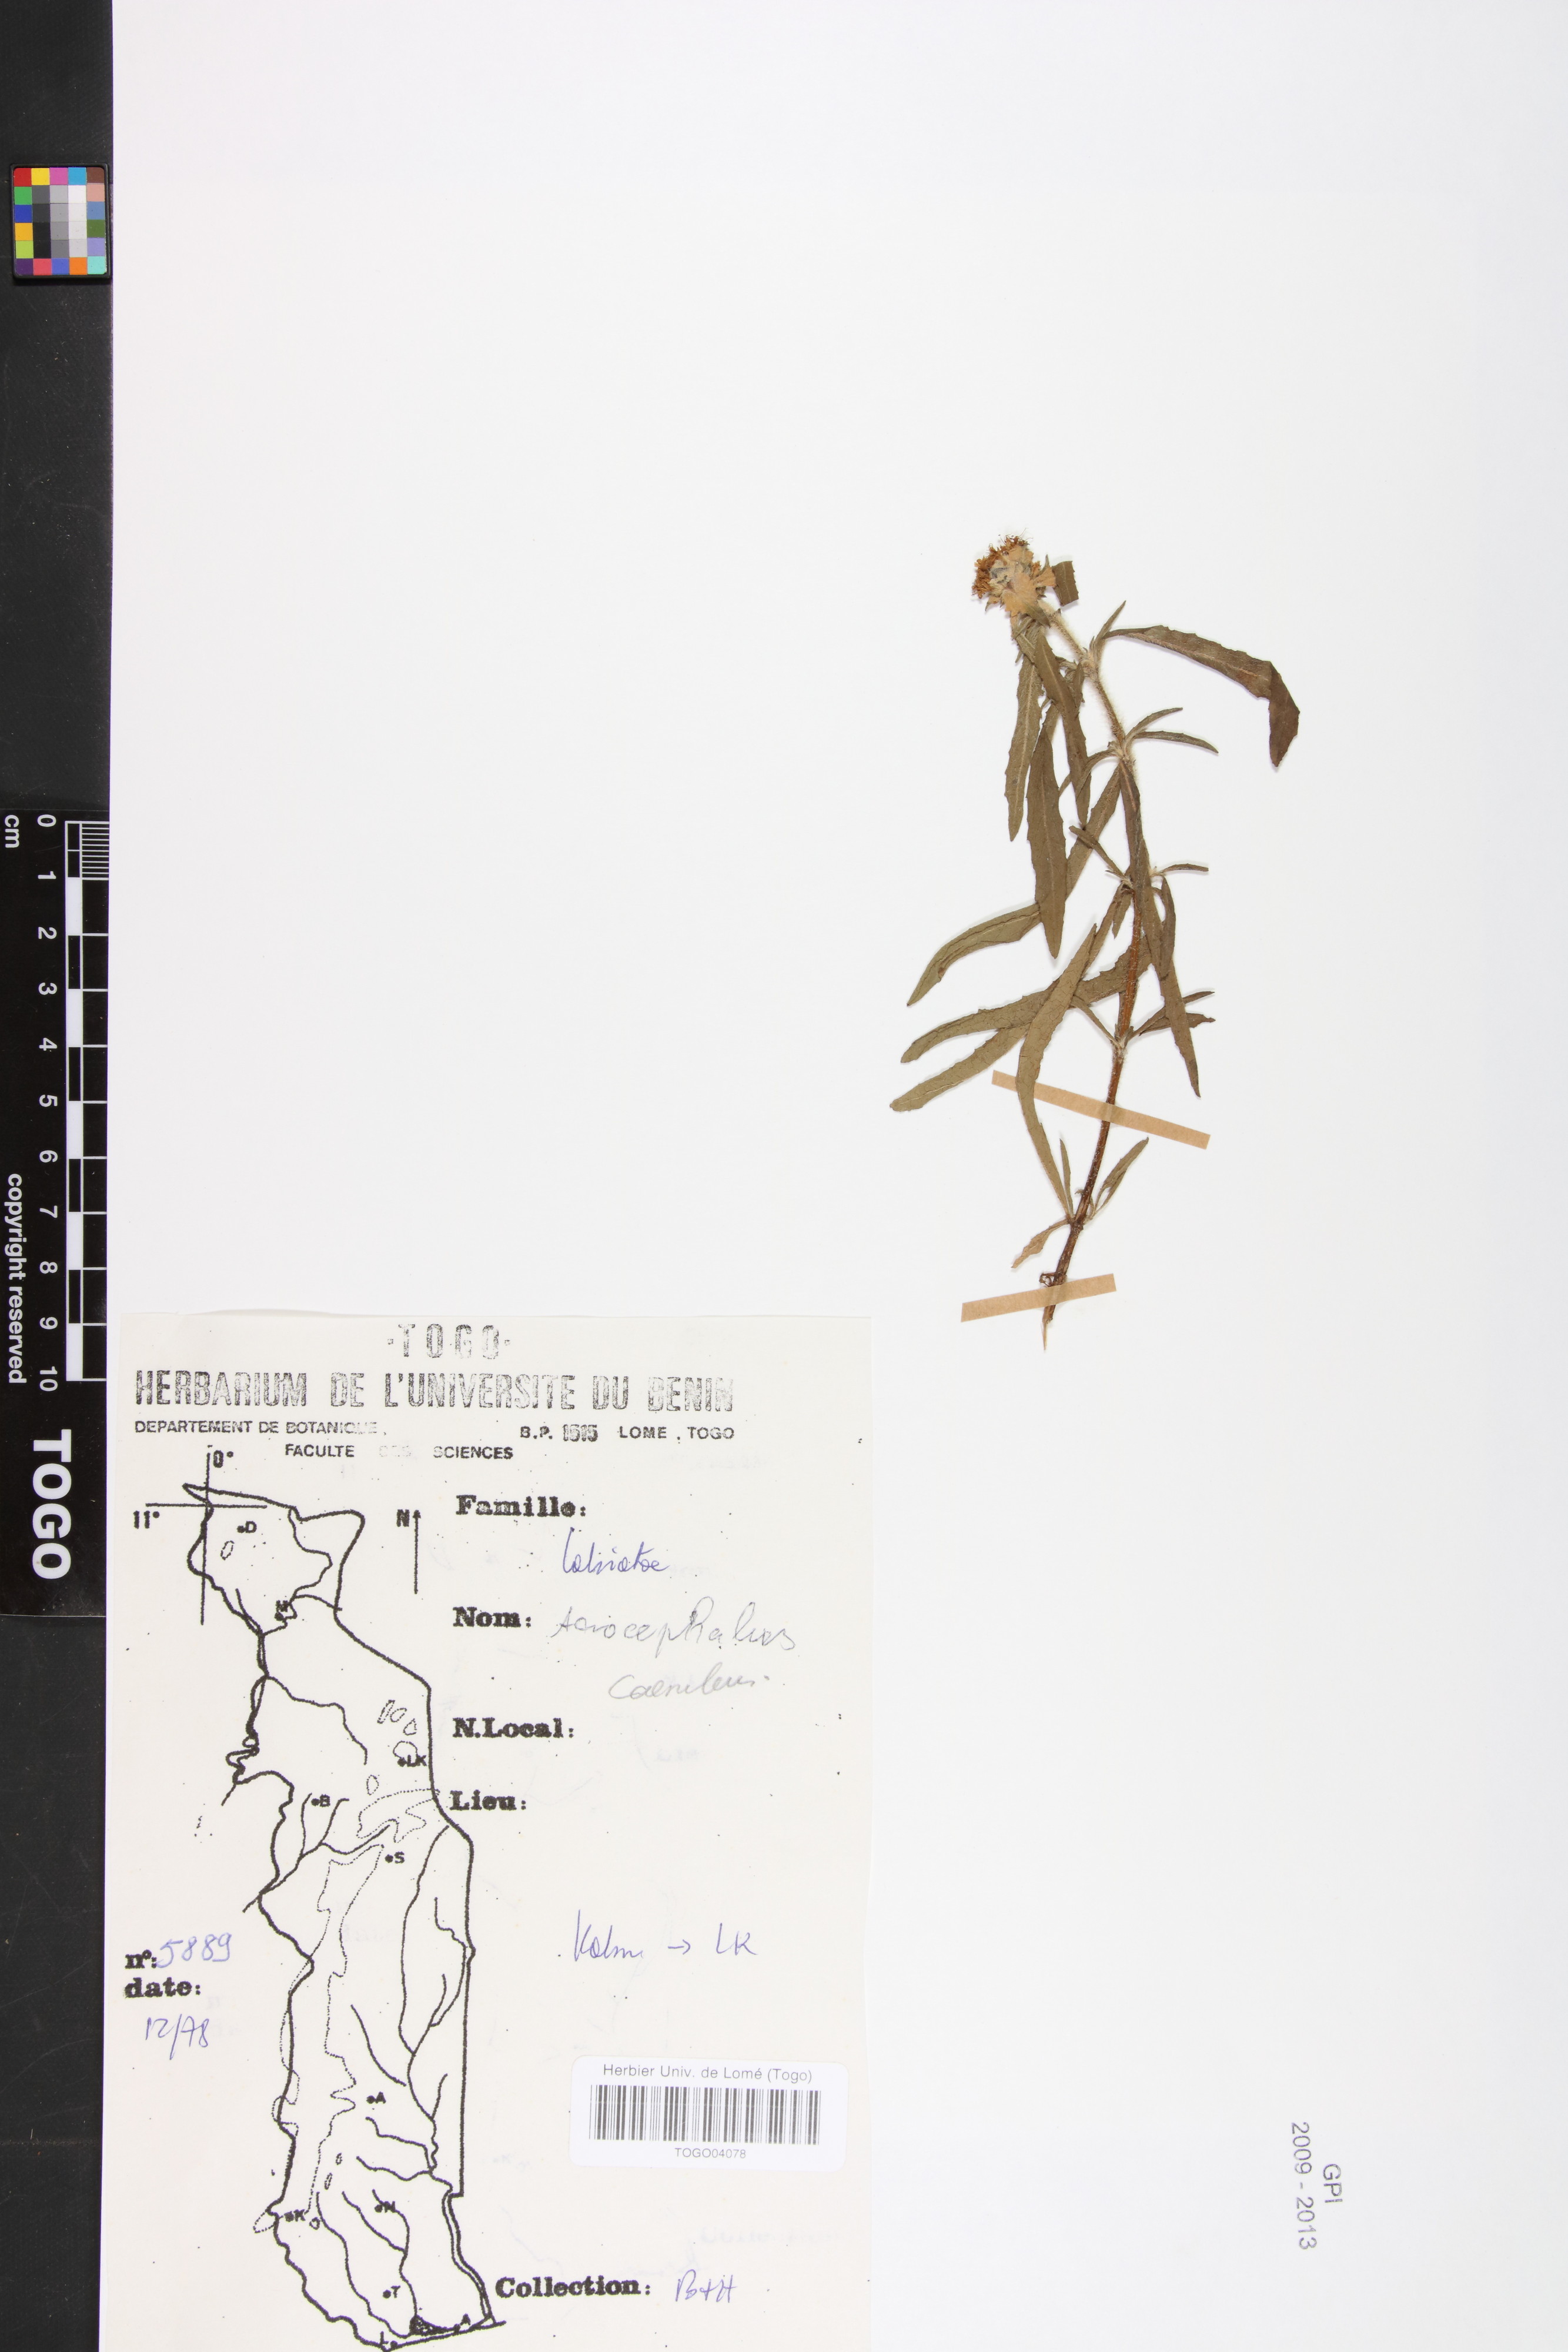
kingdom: Plantae
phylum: Tracheophyta
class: Magnoliopsida
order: Lamiales
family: Lamiaceae
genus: Haumaniastrum
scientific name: Haumaniastrum caeruleum
